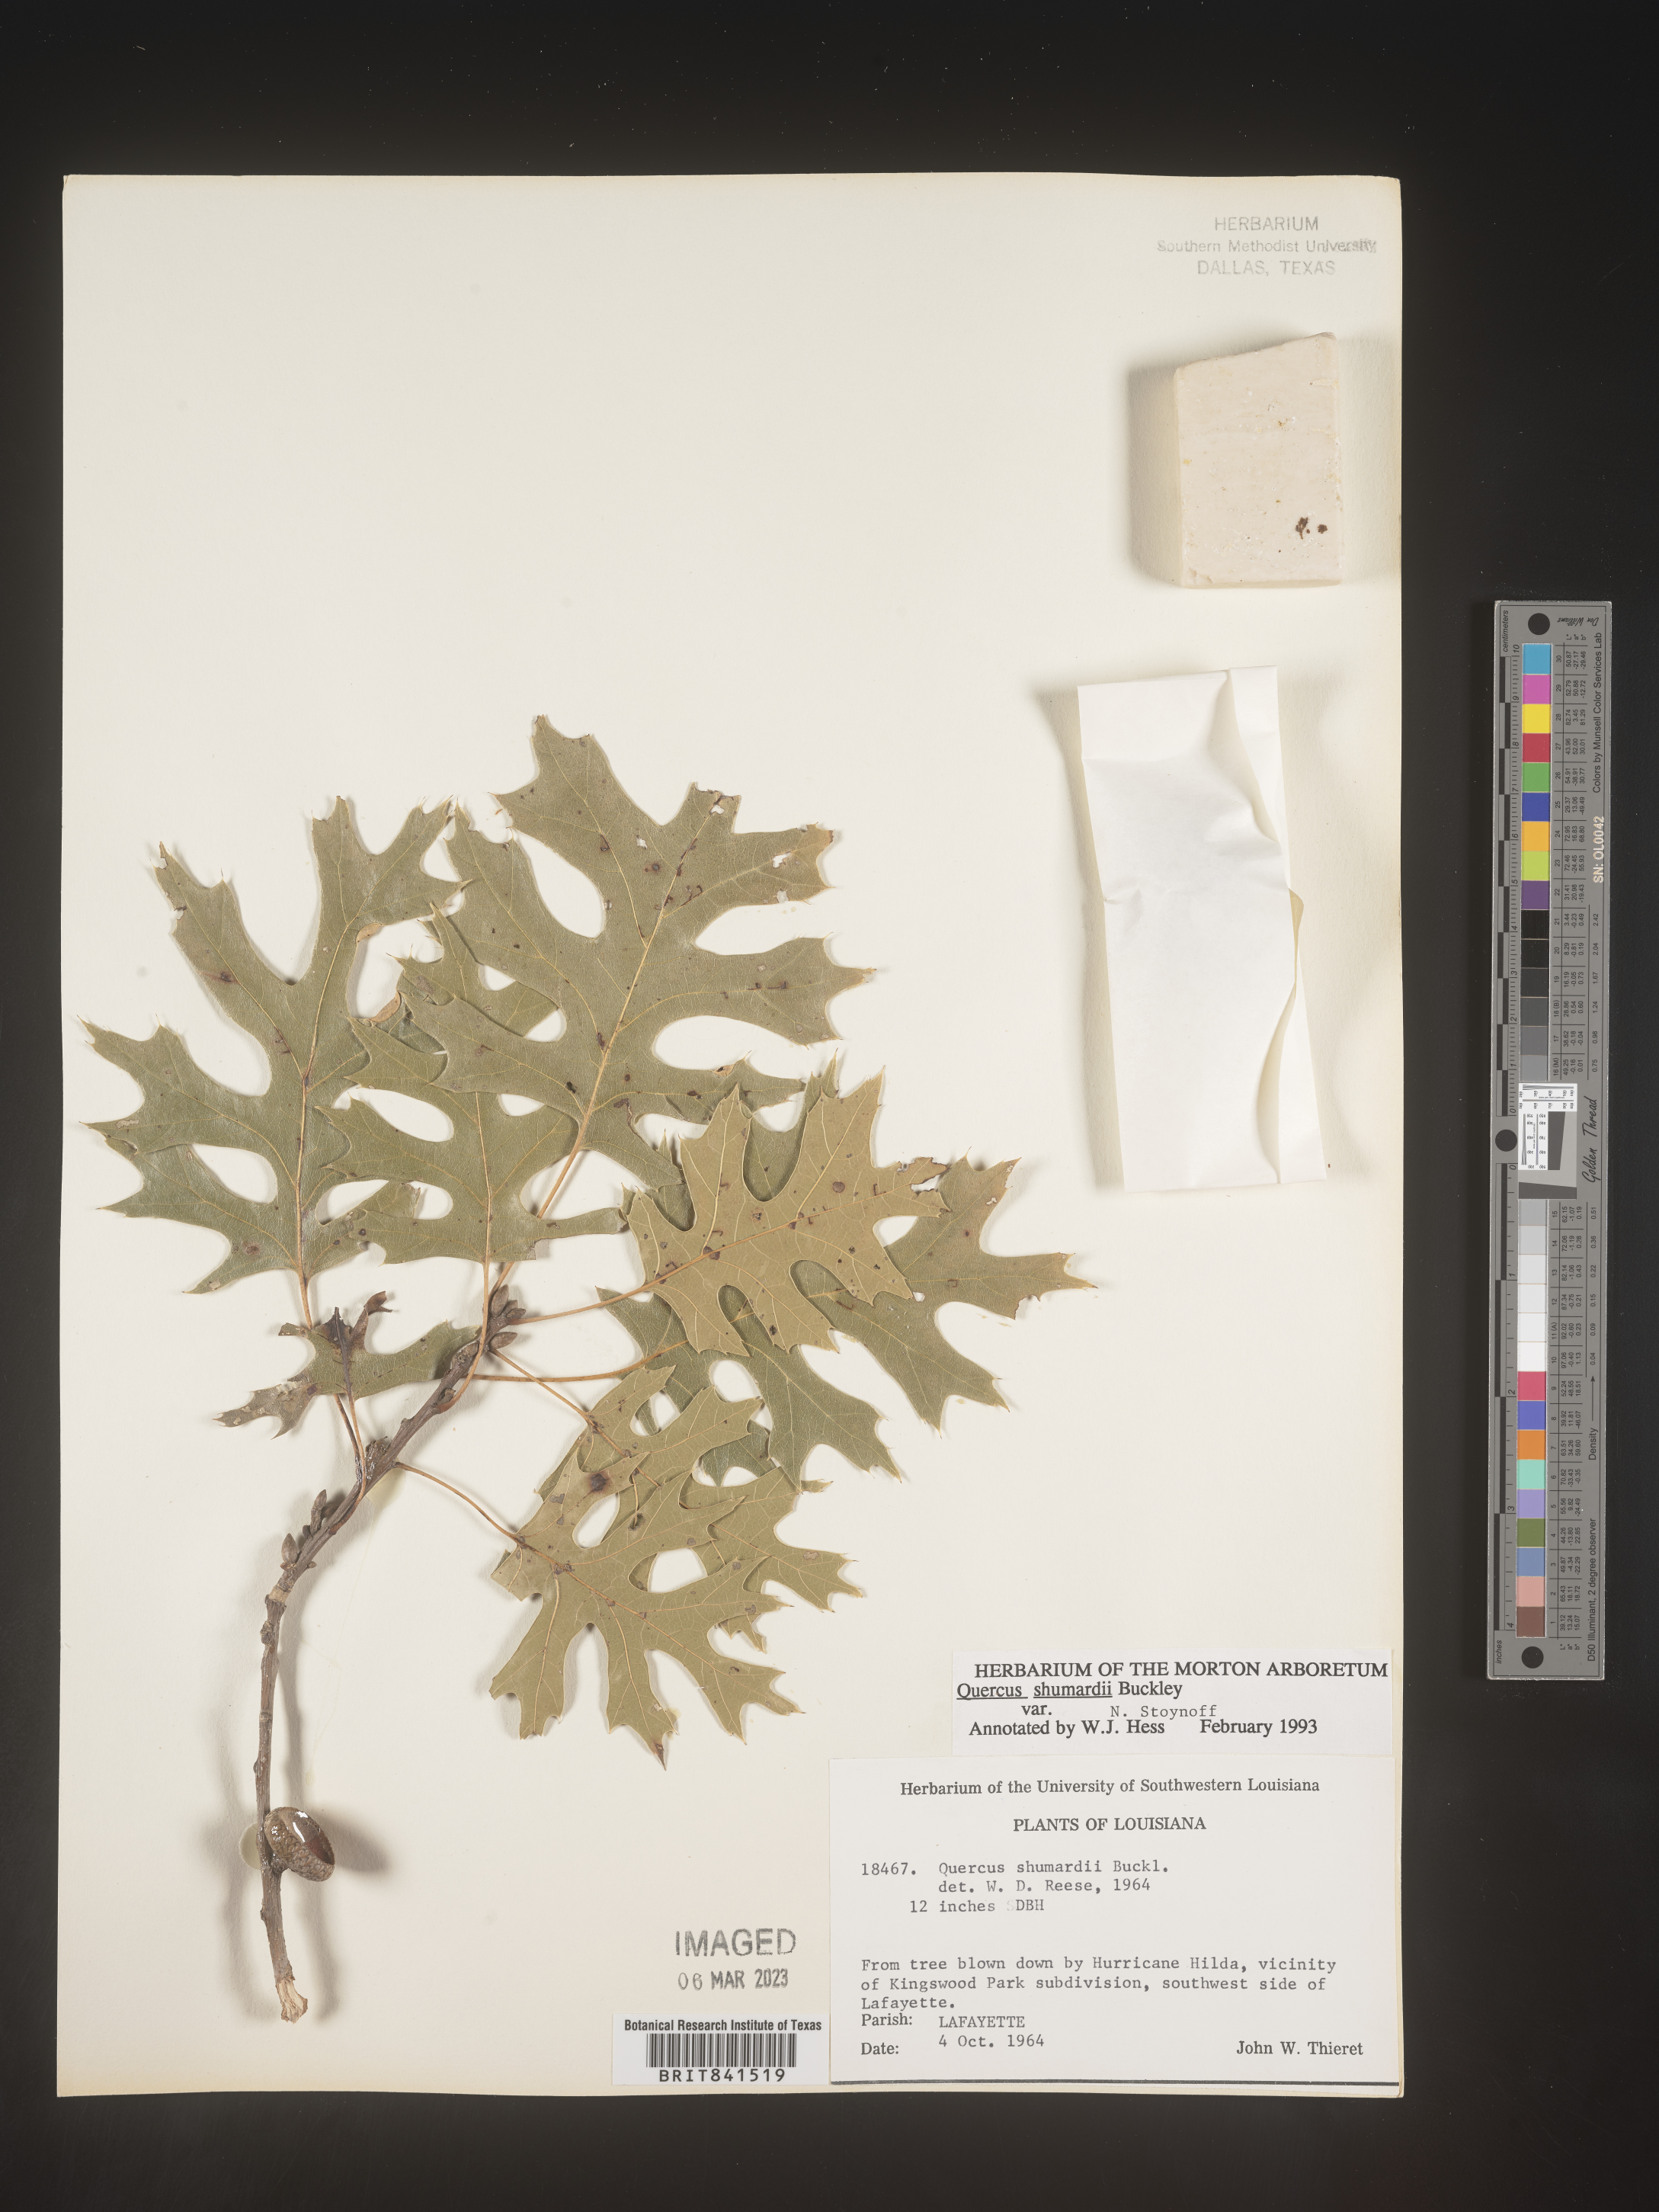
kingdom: Plantae
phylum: Tracheophyta
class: Magnoliopsida
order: Fagales
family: Fagaceae
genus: Quercus
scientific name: Quercus shumardii
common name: Shumard oak
